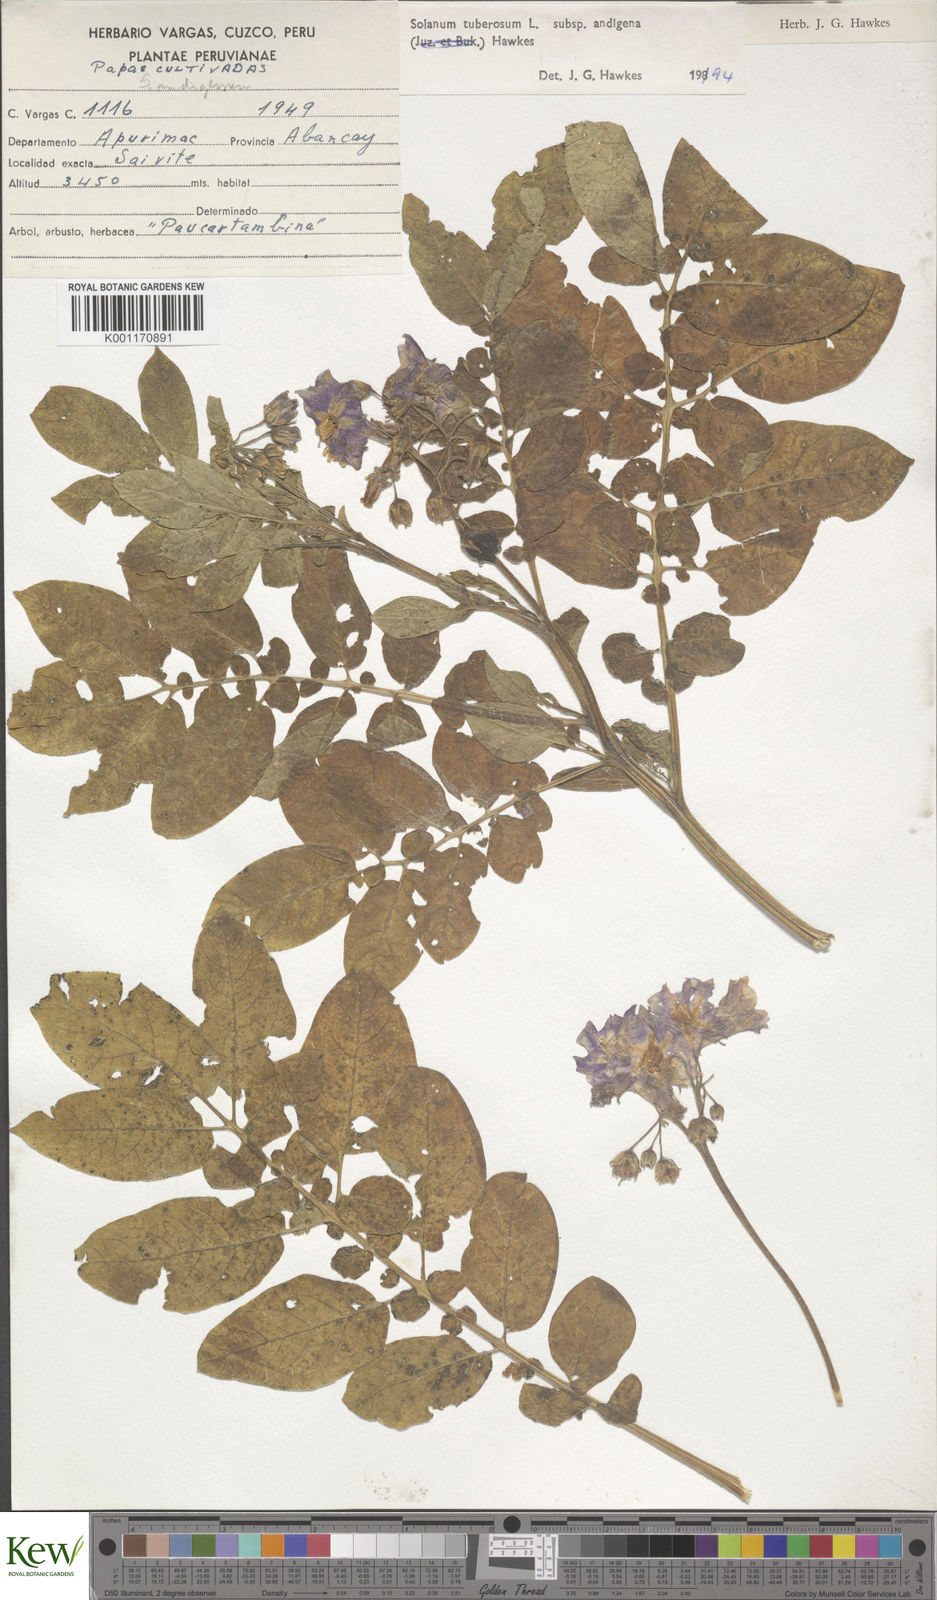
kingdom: Plantae
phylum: Tracheophyta
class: Magnoliopsida
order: Solanales
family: Solanaceae
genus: Solanum
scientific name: Solanum tuberosum
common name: Potato
